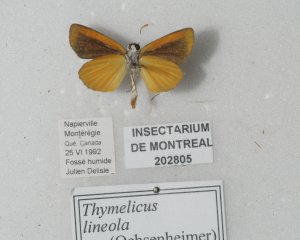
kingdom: Animalia
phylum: Arthropoda
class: Insecta
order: Lepidoptera
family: Hesperiidae
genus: Ancyloxypha
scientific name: Ancyloxypha numitor
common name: Least Skipper
